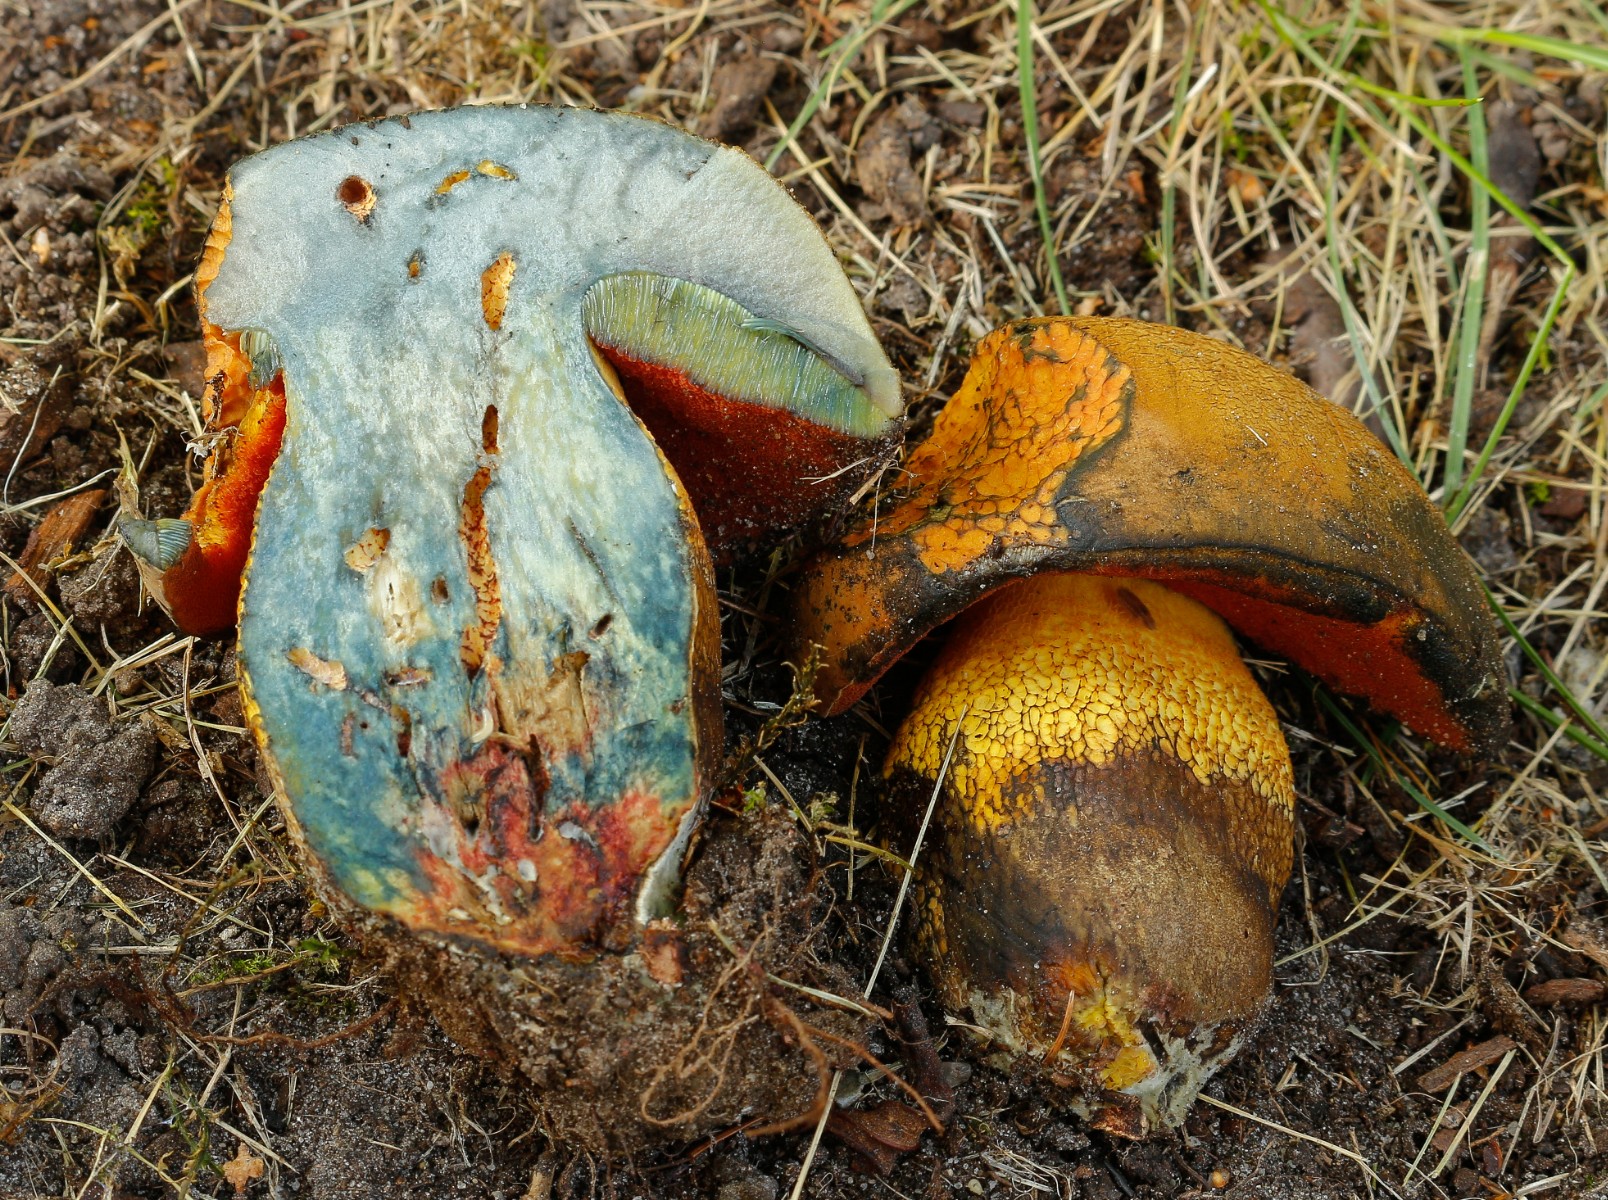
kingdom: Fungi
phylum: Basidiomycota
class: Agaricomycetes
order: Boletales
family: Boletaceae
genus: Suillellus
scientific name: Suillellus luridus
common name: netstokket indigorørhat
